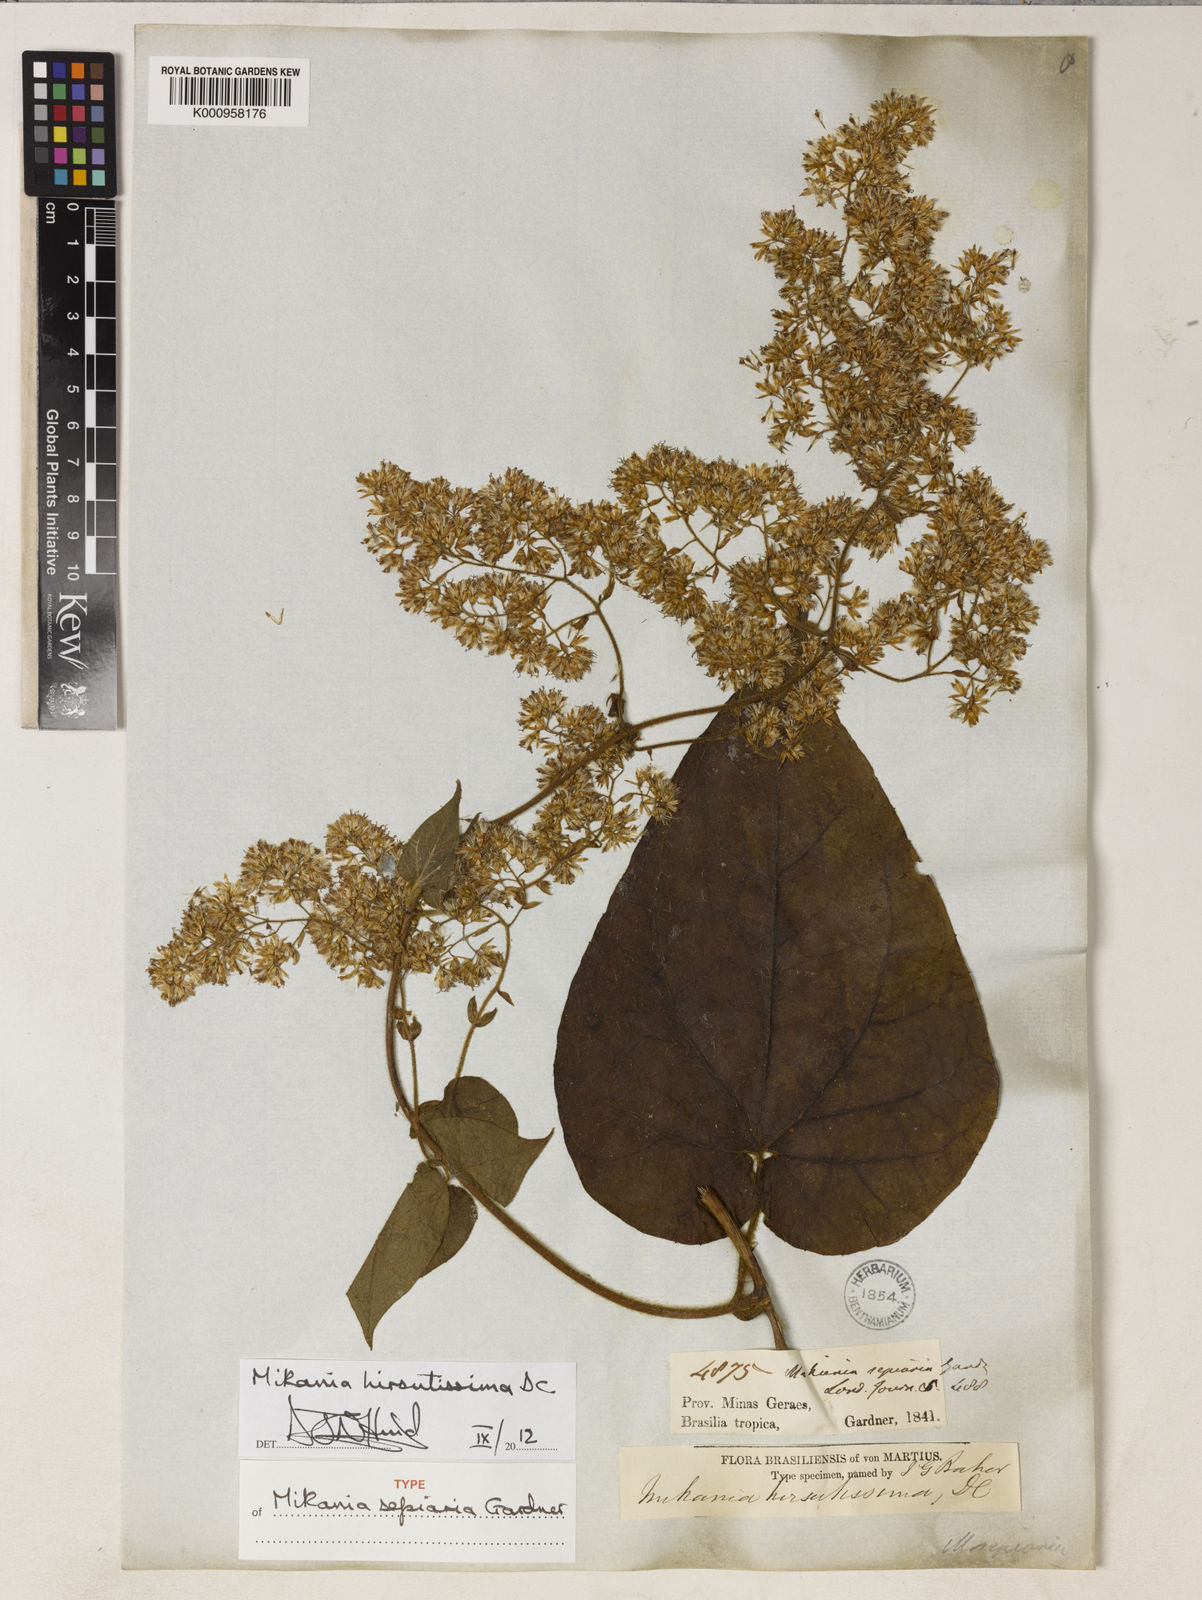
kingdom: Plantae
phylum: Tracheophyta
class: Magnoliopsida
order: Asterales
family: Asteraceae
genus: Mikania
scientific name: Mikania banisteriae
